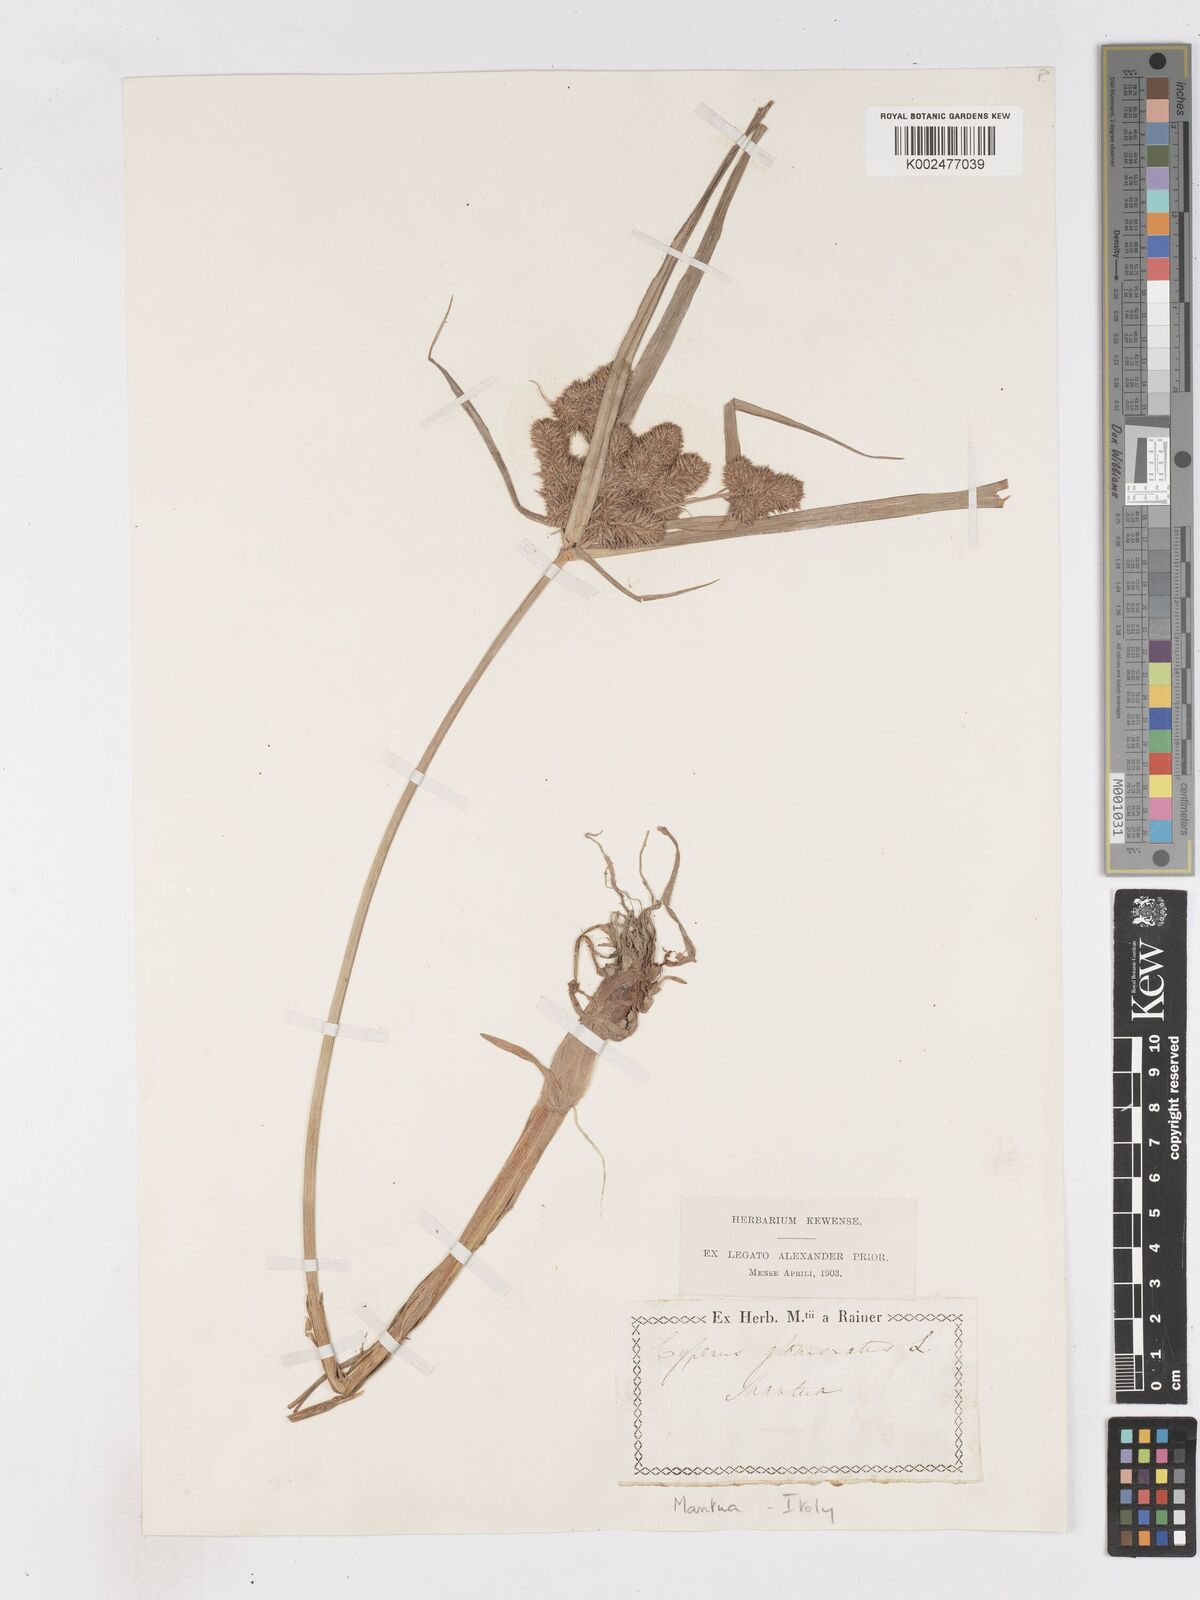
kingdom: Plantae
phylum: Tracheophyta
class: Liliopsida
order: Poales
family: Cyperaceae
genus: Cyperus
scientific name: Cyperus glomeratus
